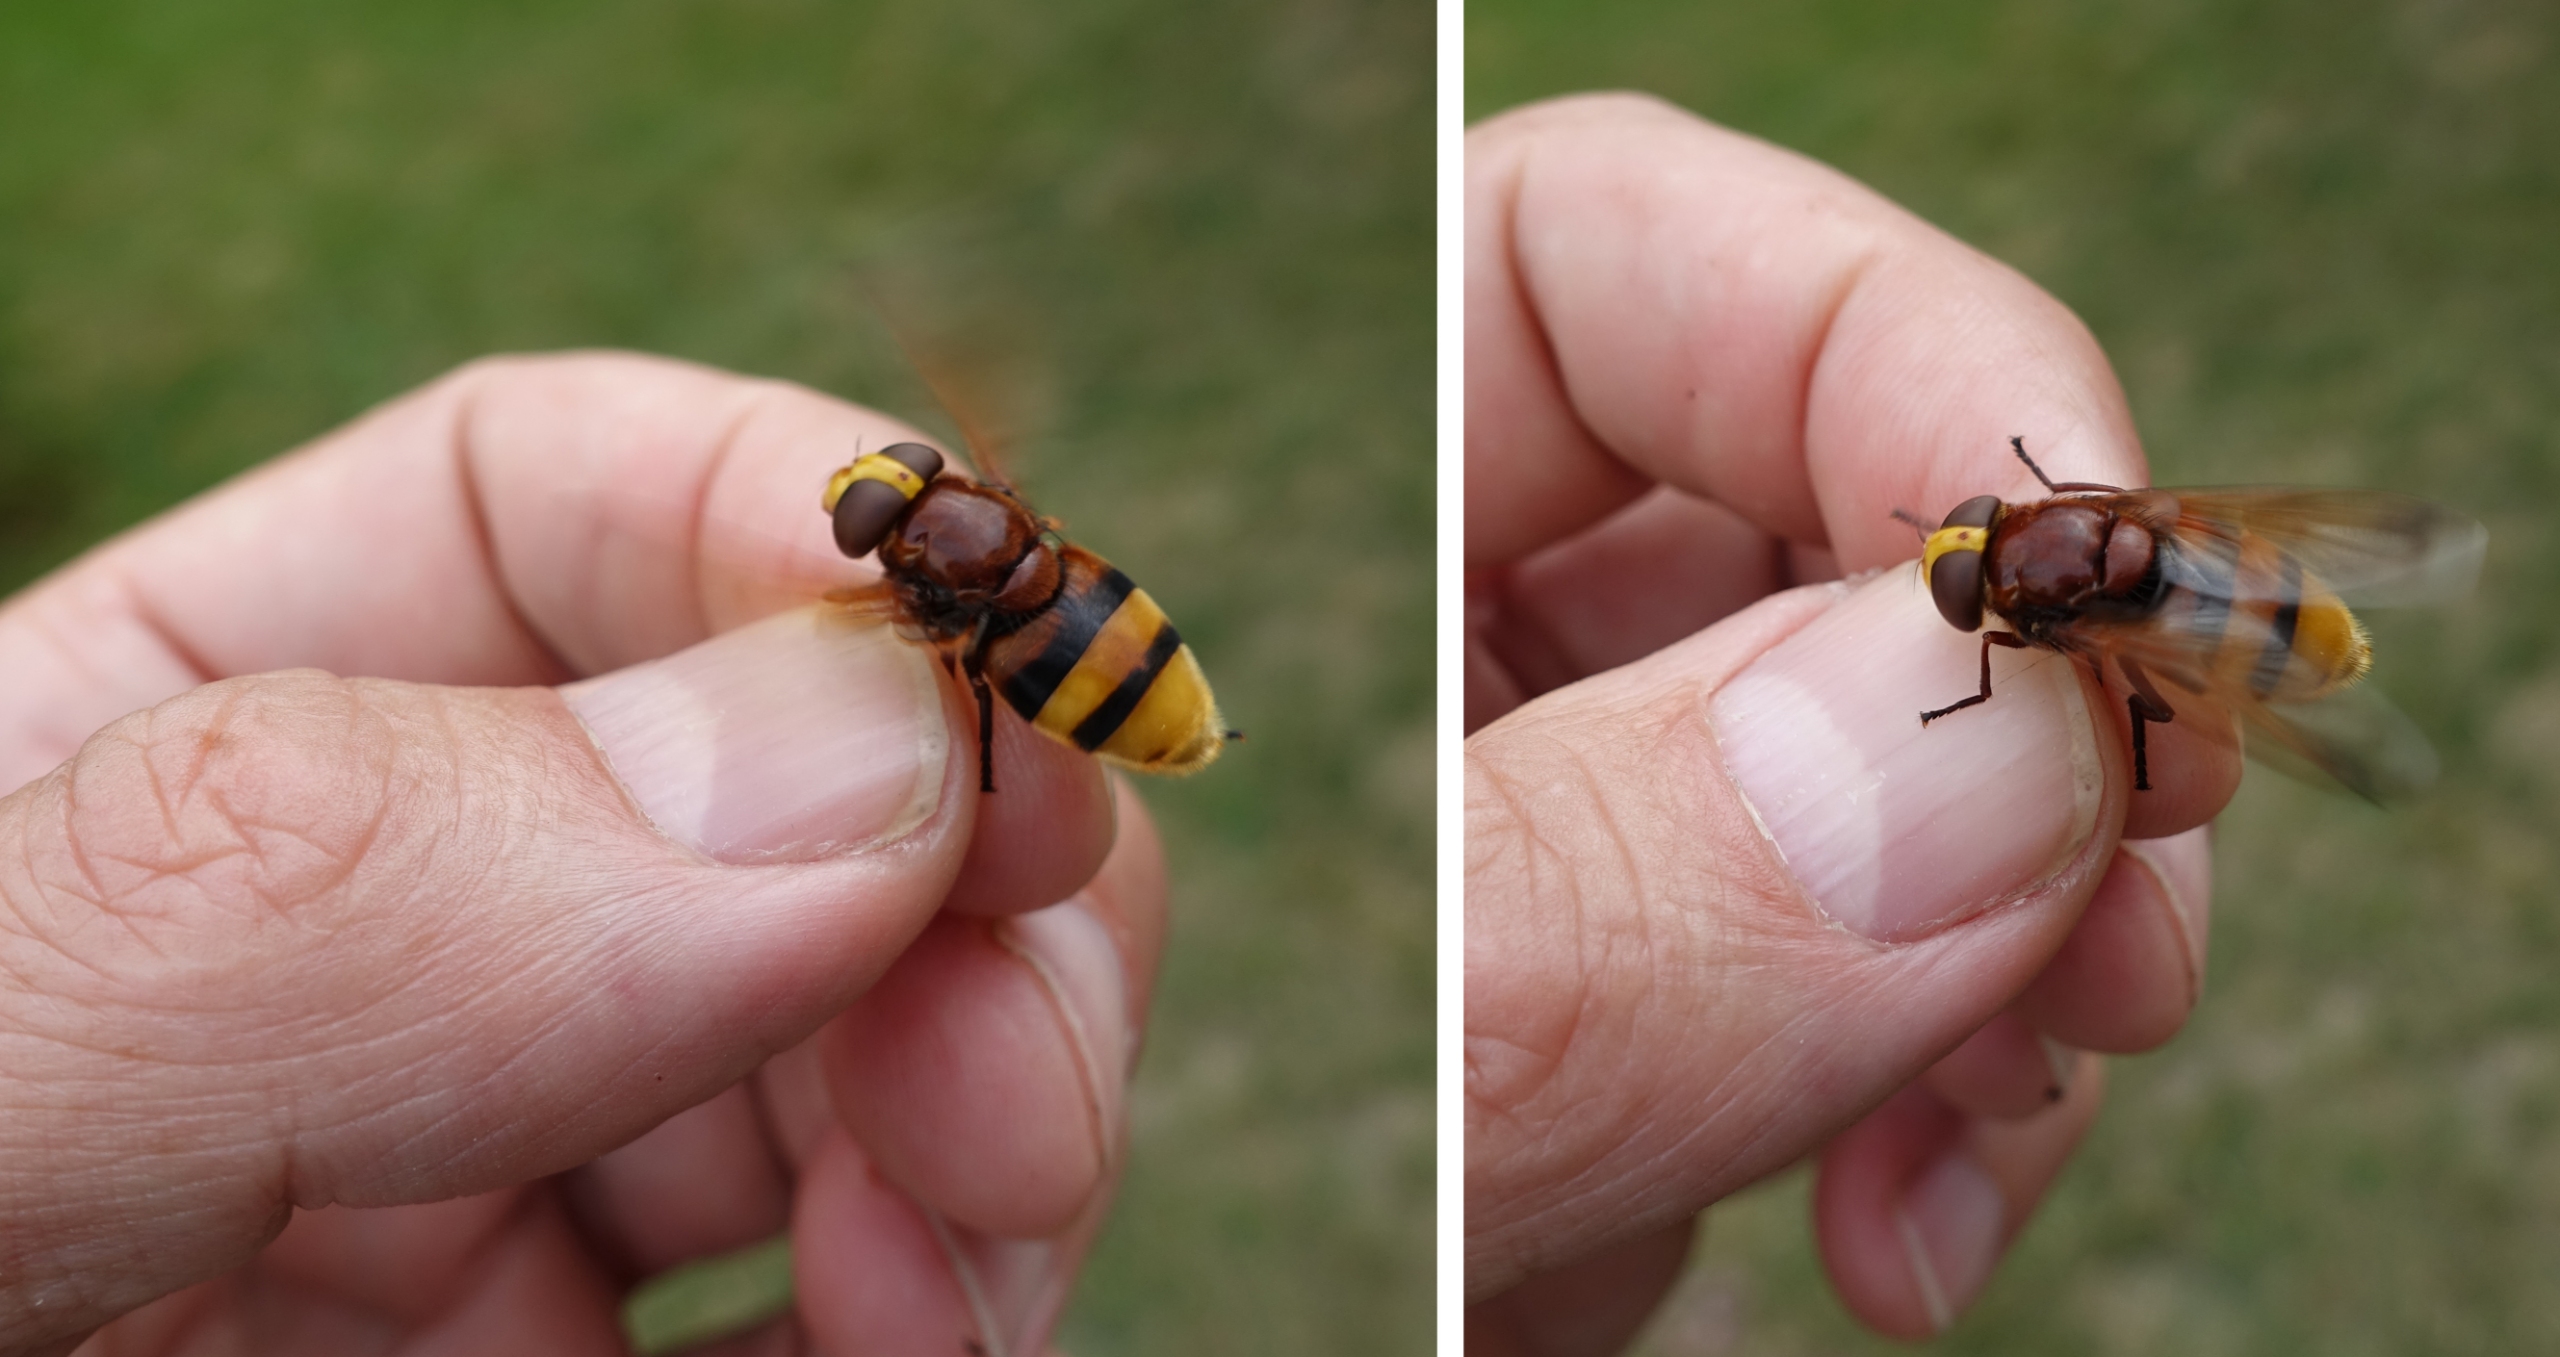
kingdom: Animalia
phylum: Arthropoda
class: Insecta
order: Diptera
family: Syrphidae
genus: Volucella
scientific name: Volucella zonaria
